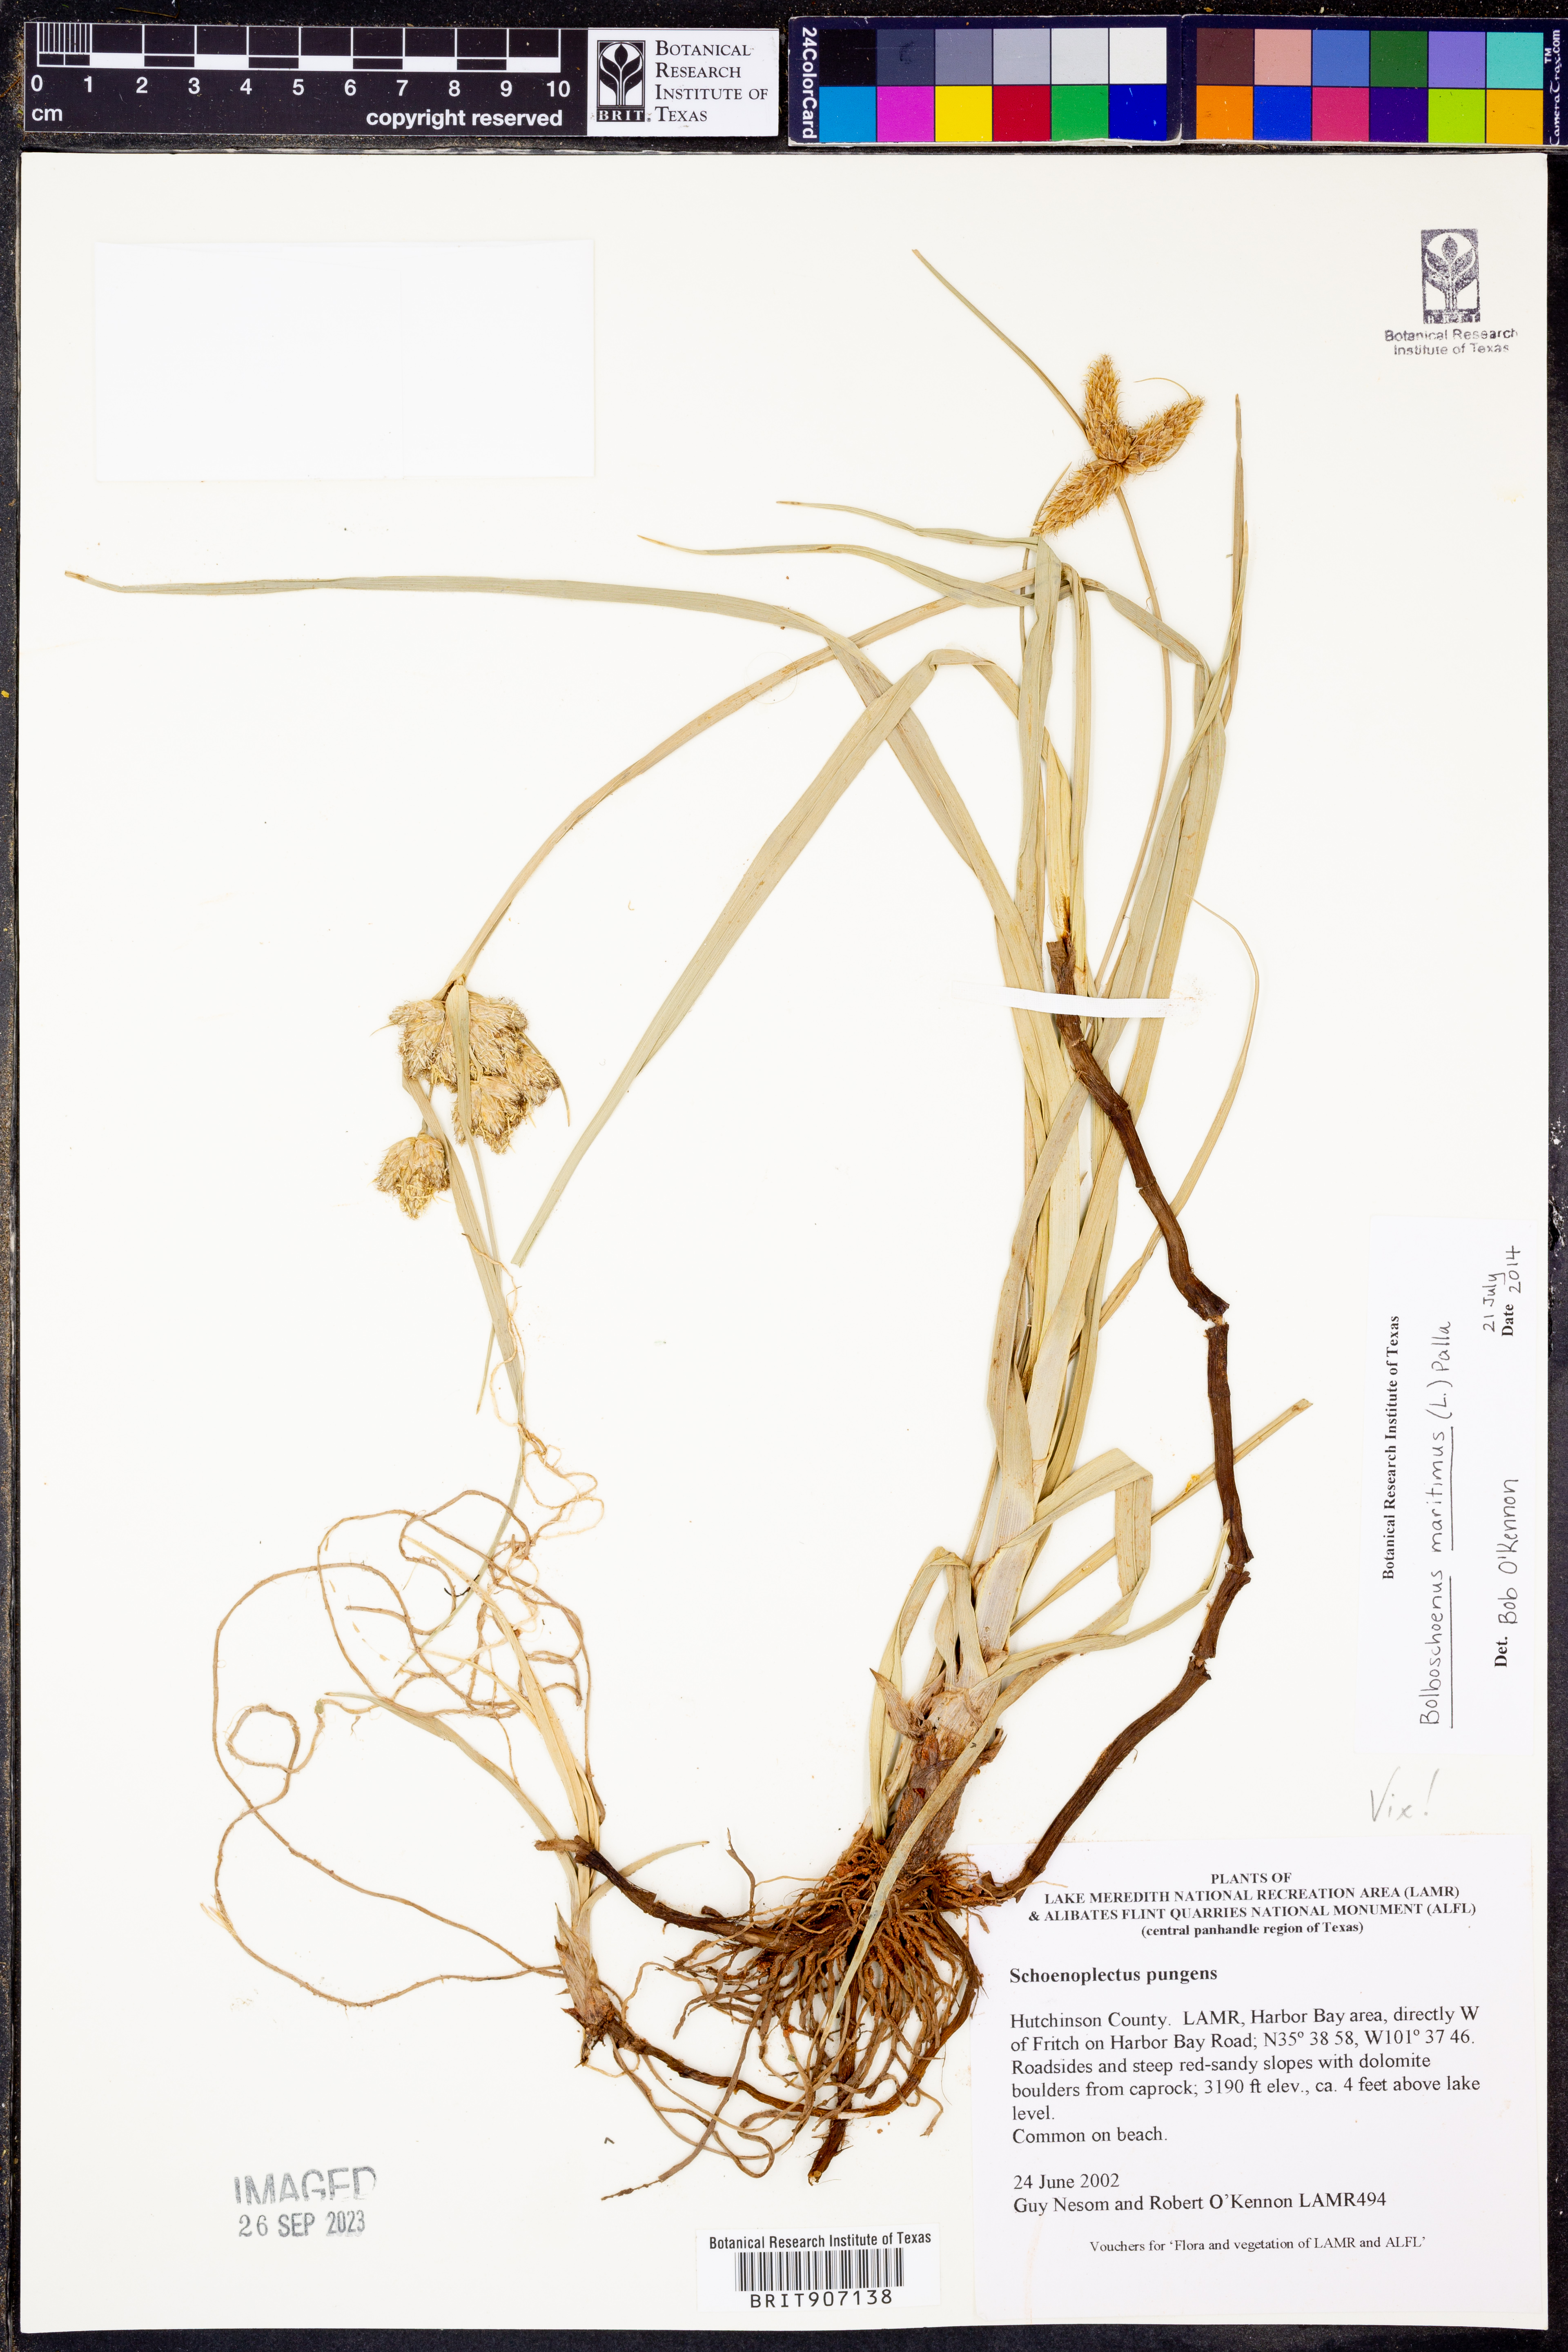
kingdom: Plantae
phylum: Tracheophyta
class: Liliopsida
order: Poales
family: Cyperaceae
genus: Bolboschoenus
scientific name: Bolboschoenus maritimus
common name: Sea club-rush
